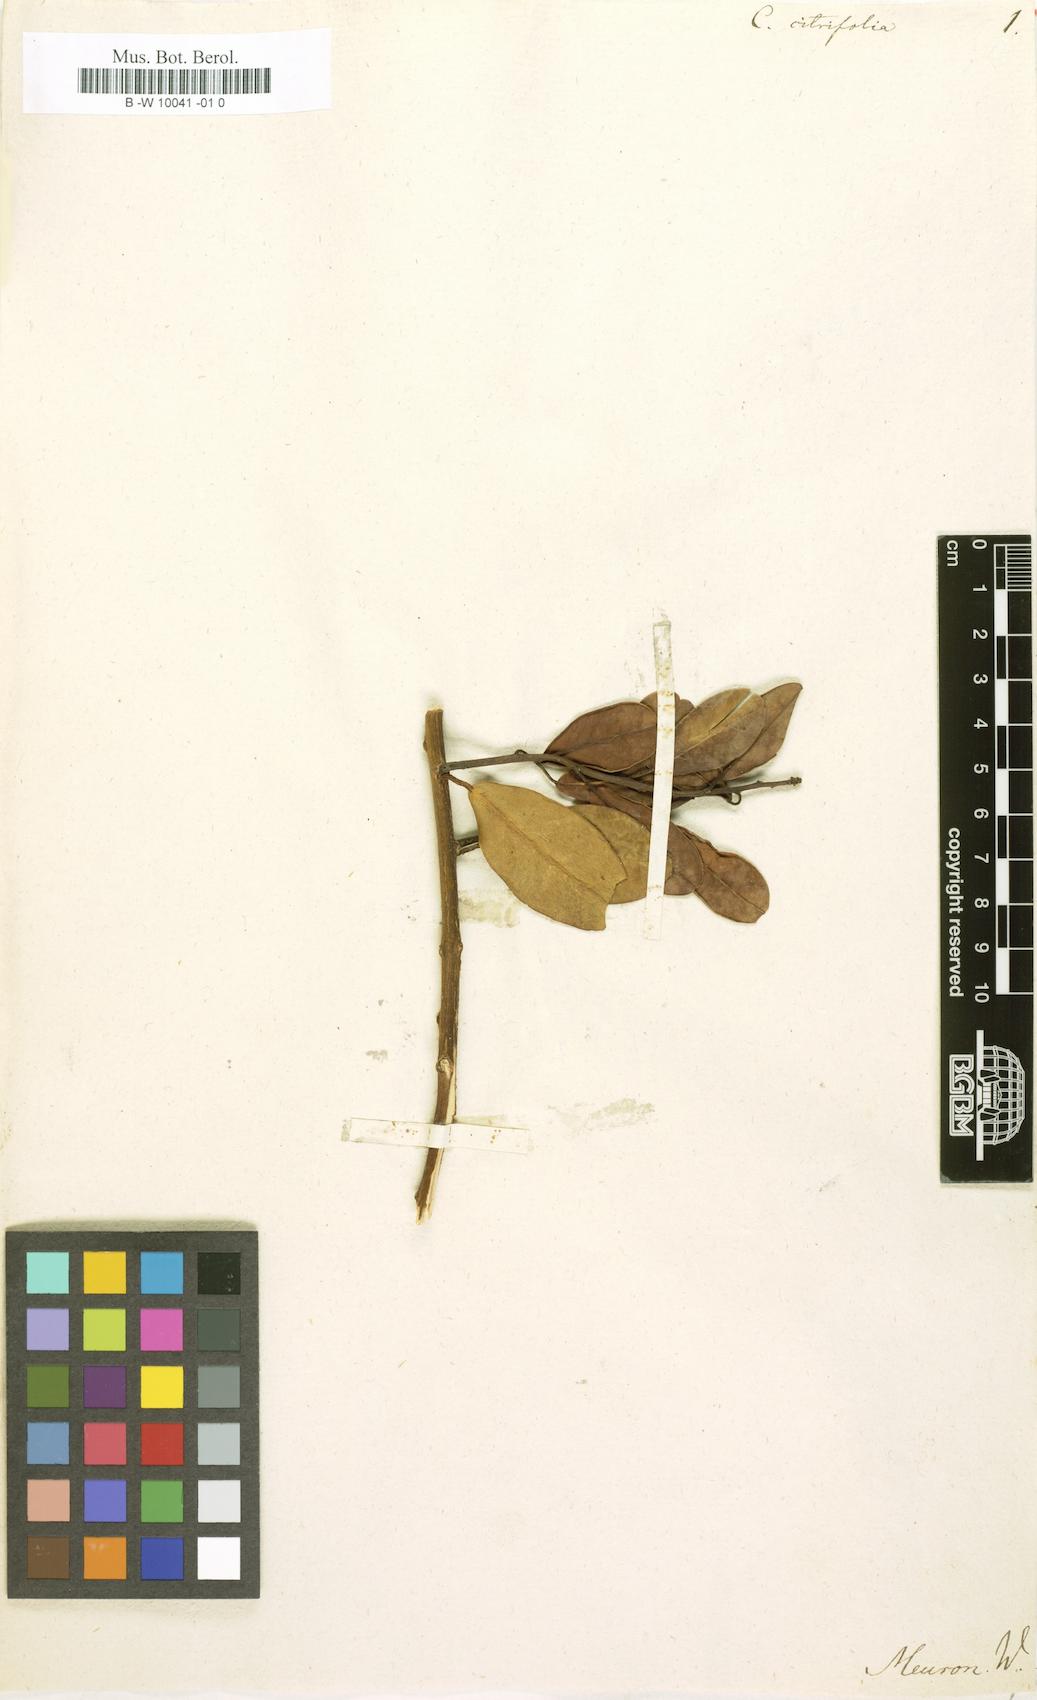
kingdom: Plantae
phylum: Tracheophyta
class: Magnoliopsida
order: Brassicales
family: Capparaceae
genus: Capparis
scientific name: Capparis sepiaria
